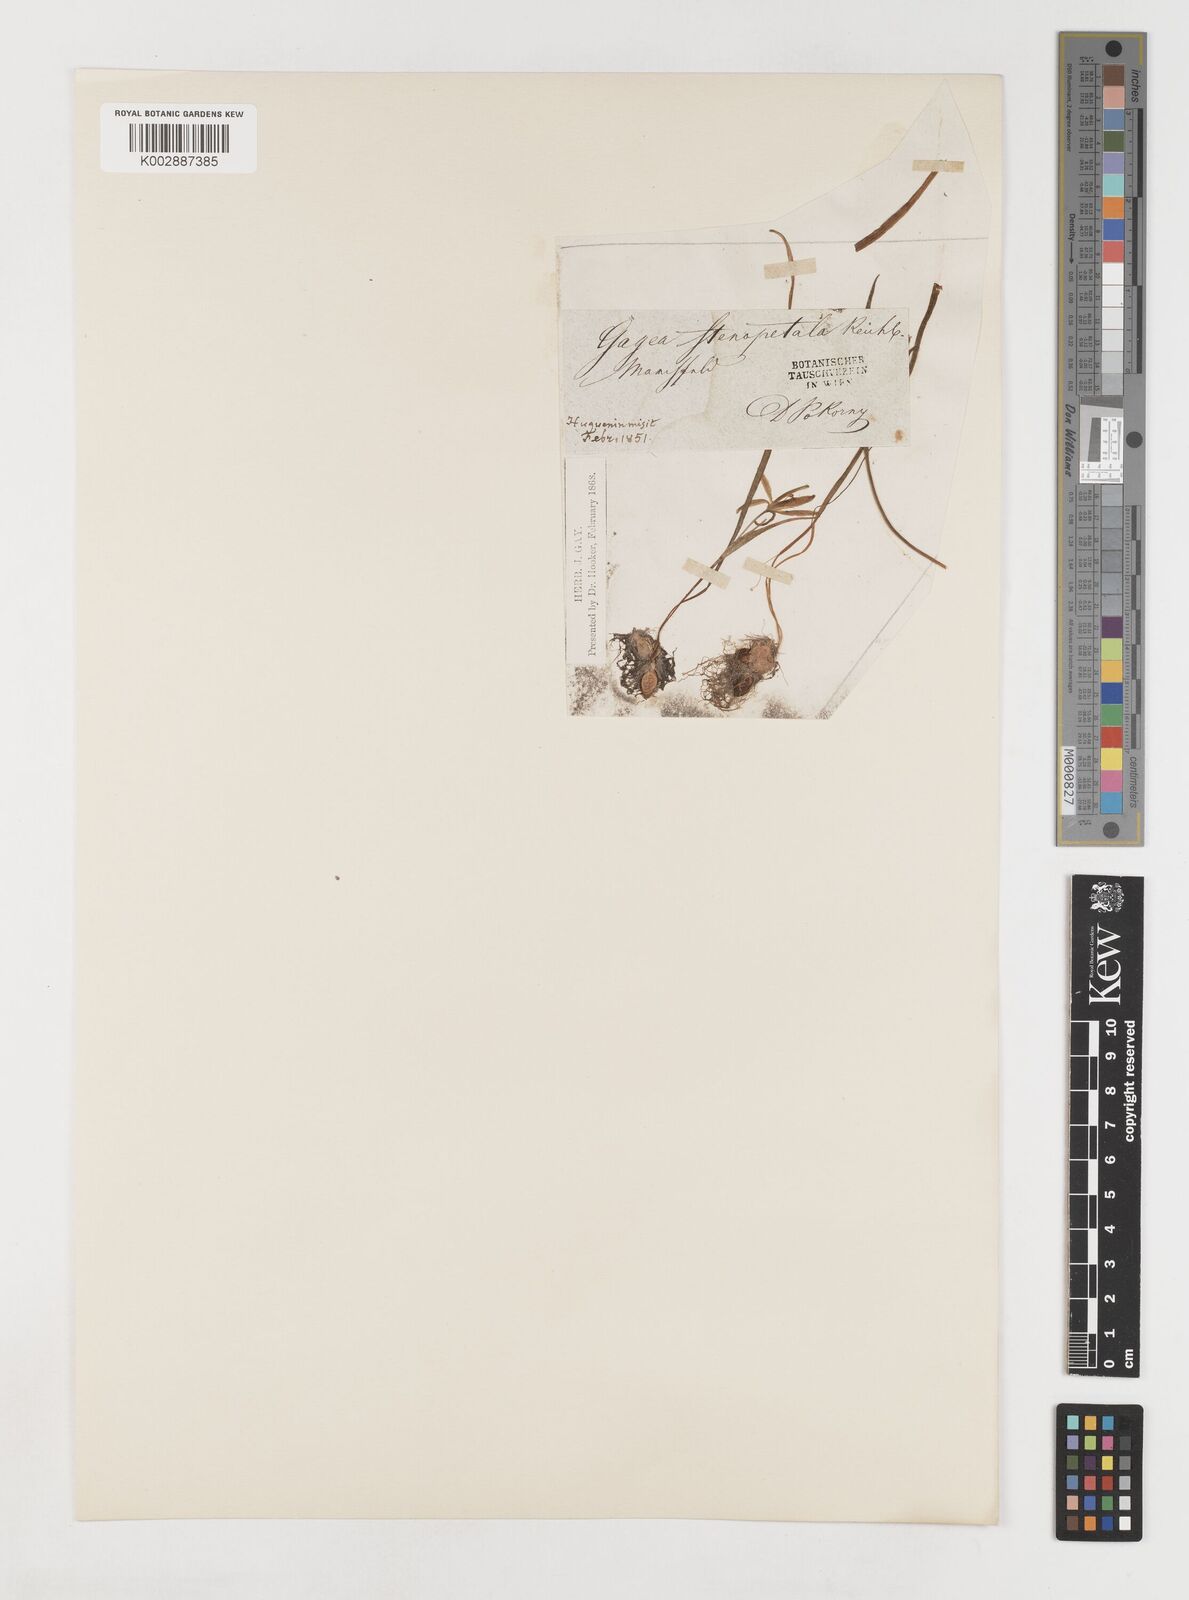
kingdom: Plantae
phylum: Tracheophyta
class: Liliopsida
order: Liliales
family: Liliaceae
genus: Gagea
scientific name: Gagea pratensis
